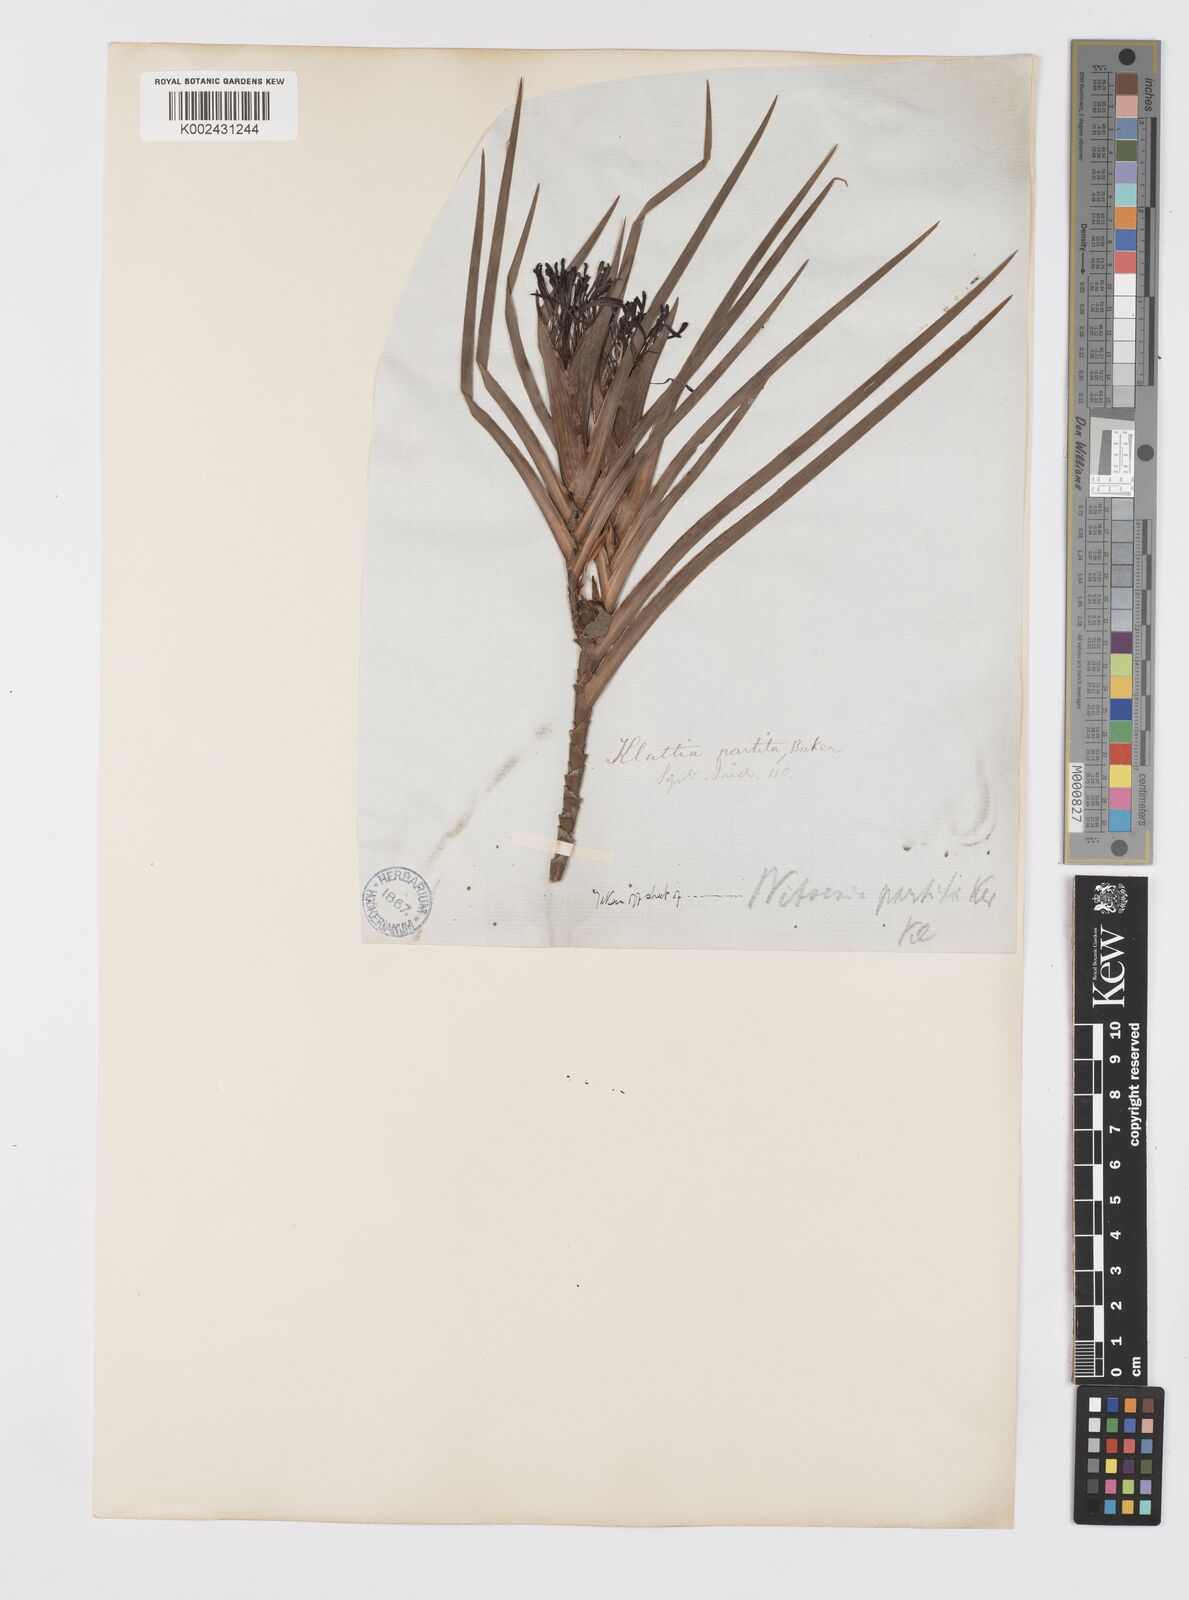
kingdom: Plantae
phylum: Tracheophyta
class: Liliopsida
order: Asparagales
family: Iridaceae
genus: Klattia
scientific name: Klattia partita
